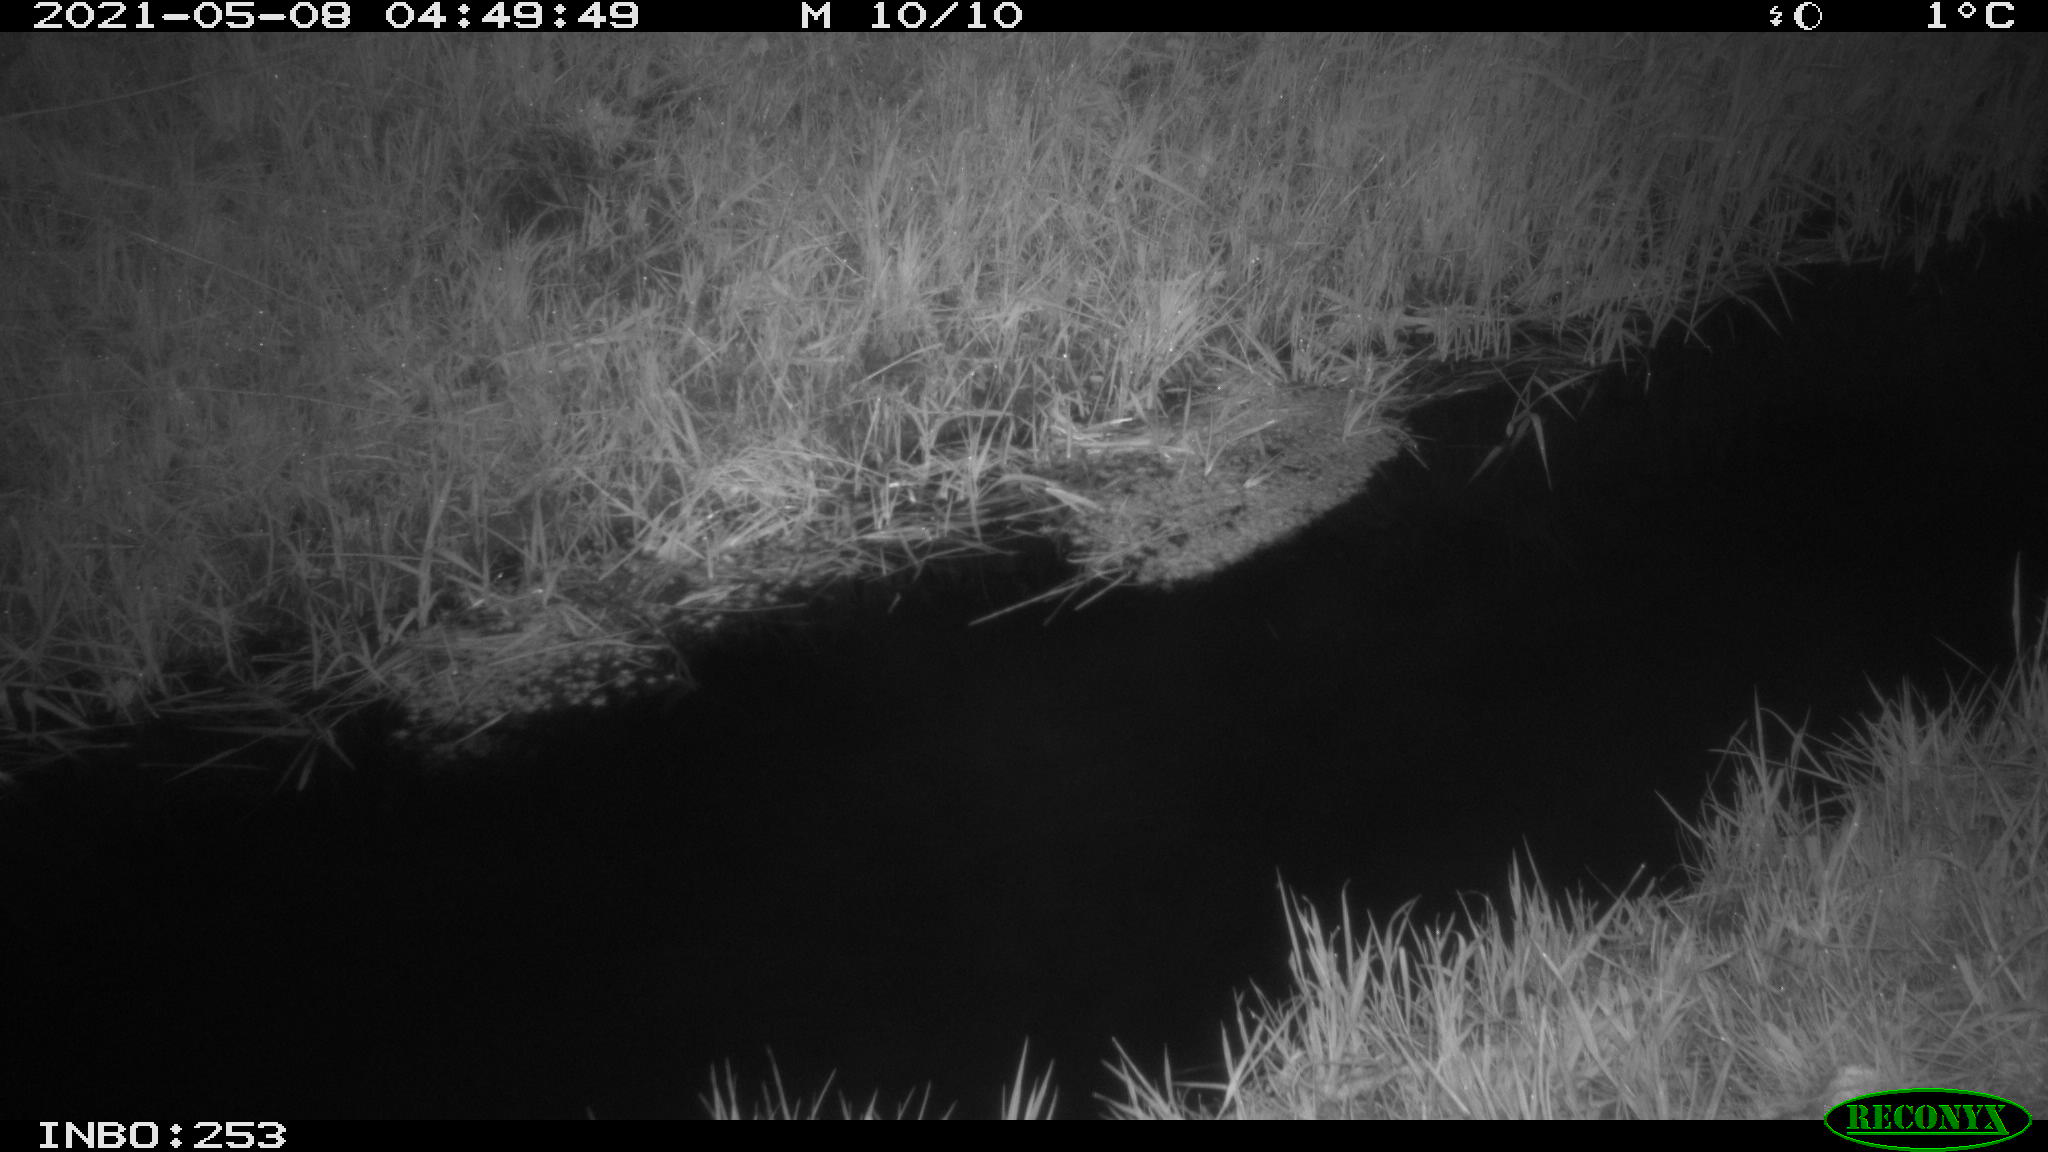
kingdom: Animalia
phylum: Chordata
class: Aves
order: Anseriformes
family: Anatidae
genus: Anas
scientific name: Anas platyrhynchos
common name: Mallard
